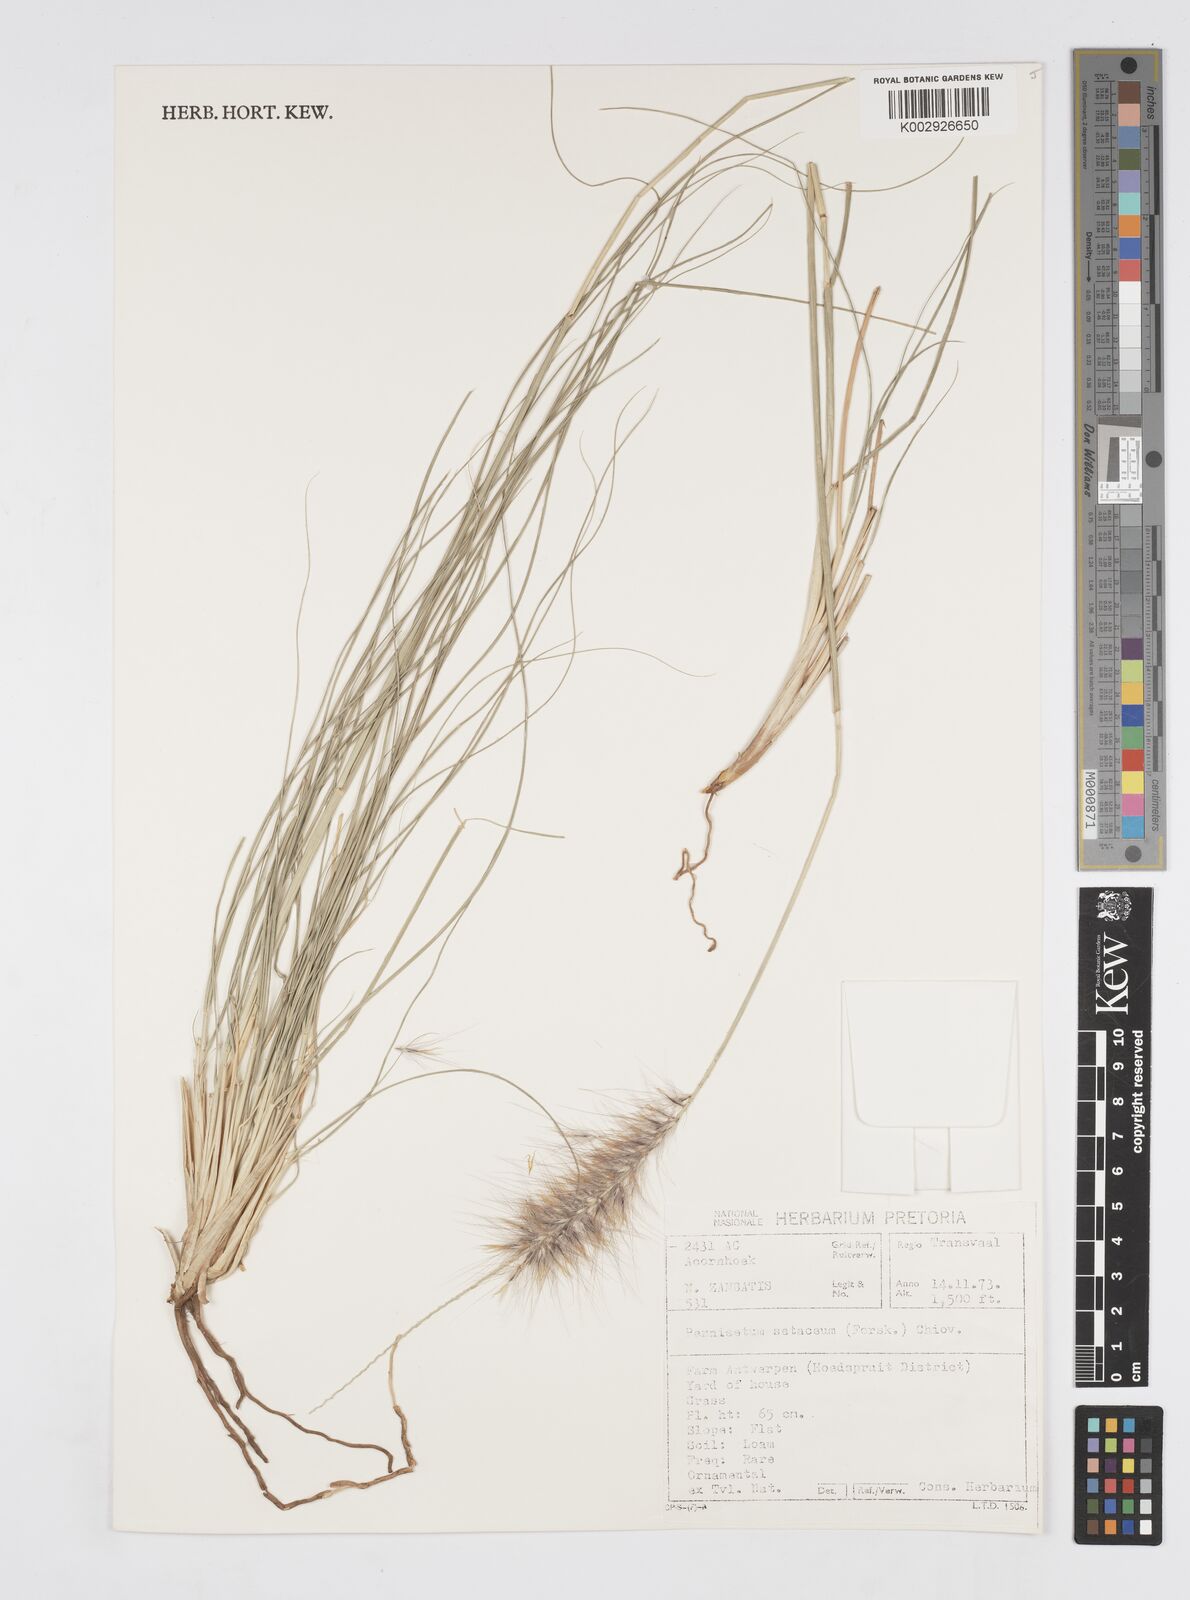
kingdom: Plantae
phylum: Tracheophyta
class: Liliopsida
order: Poales
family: Poaceae
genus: Cenchrus
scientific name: Cenchrus setaceus
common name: Crimson fountaingrass
